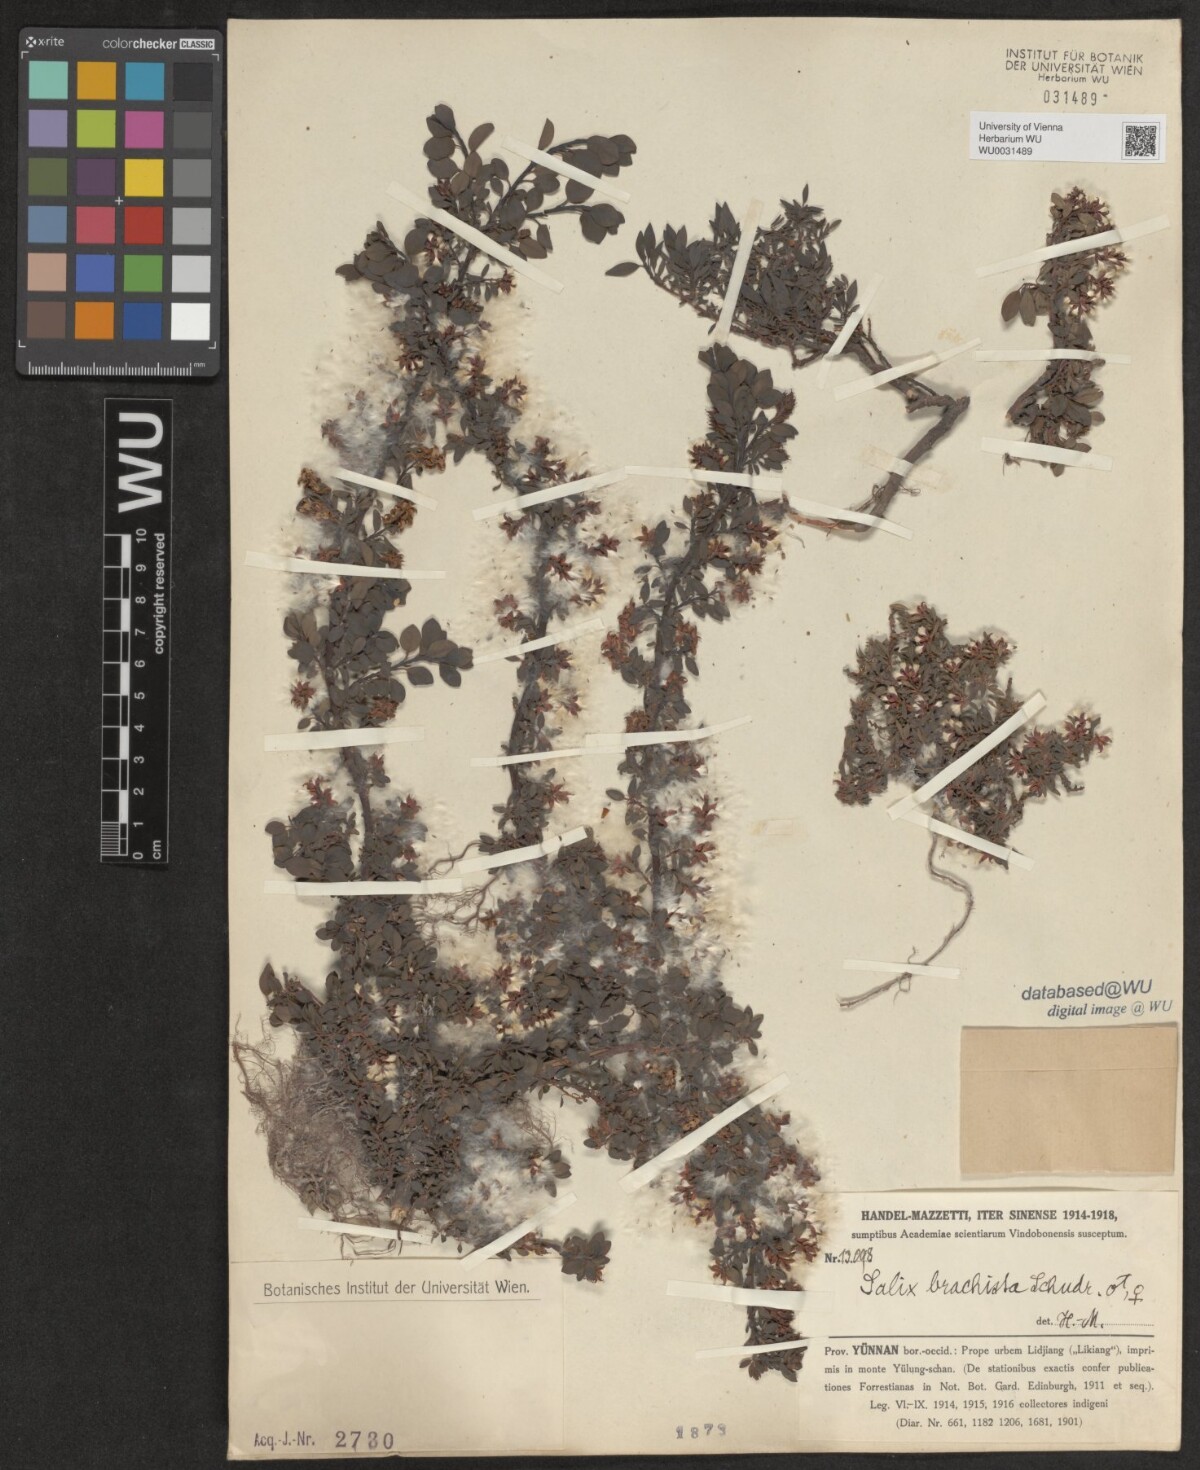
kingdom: Plantae
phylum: Tracheophyta
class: Magnoliopsida
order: Malpighiales
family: Salicaceae
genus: Salix
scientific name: Salix lindleyana
